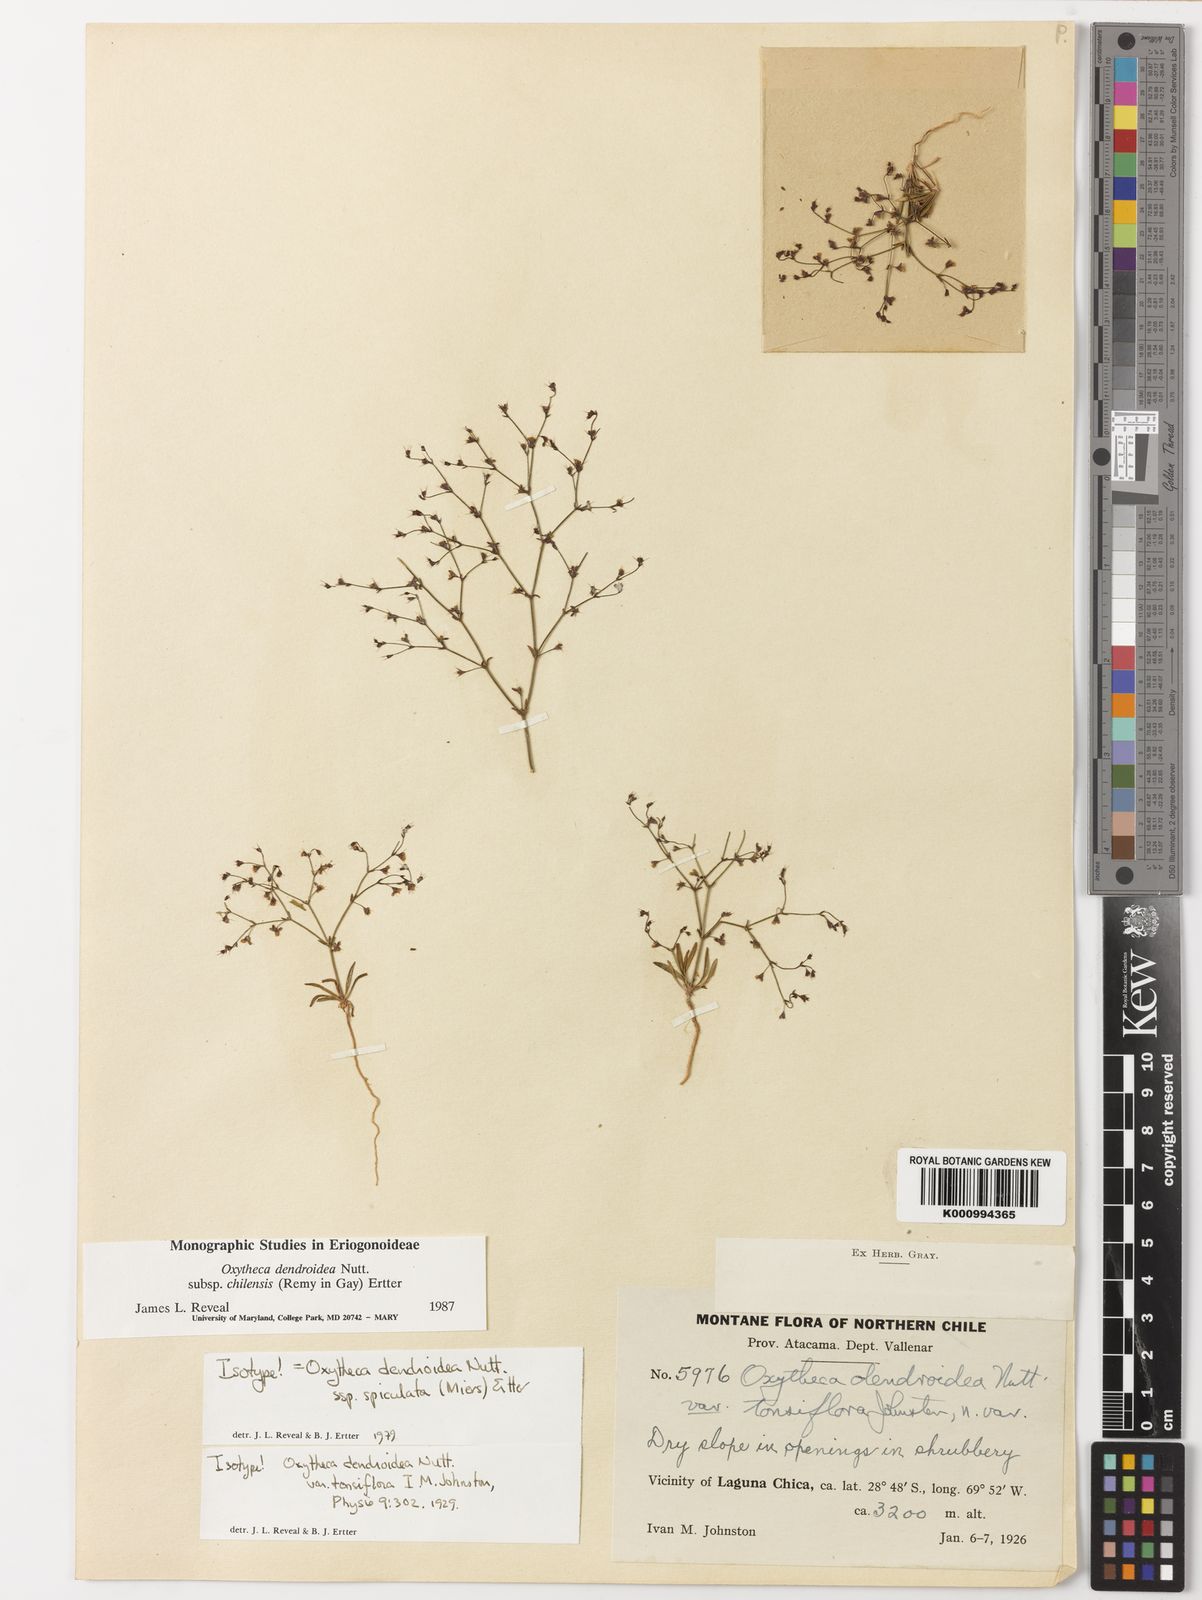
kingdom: Plantae
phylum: Tracheophyta
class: Magnoliopsida
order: Caryophyllales
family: Polygonaceae
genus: Oxytheca
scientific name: Oxytheca dendroidea
